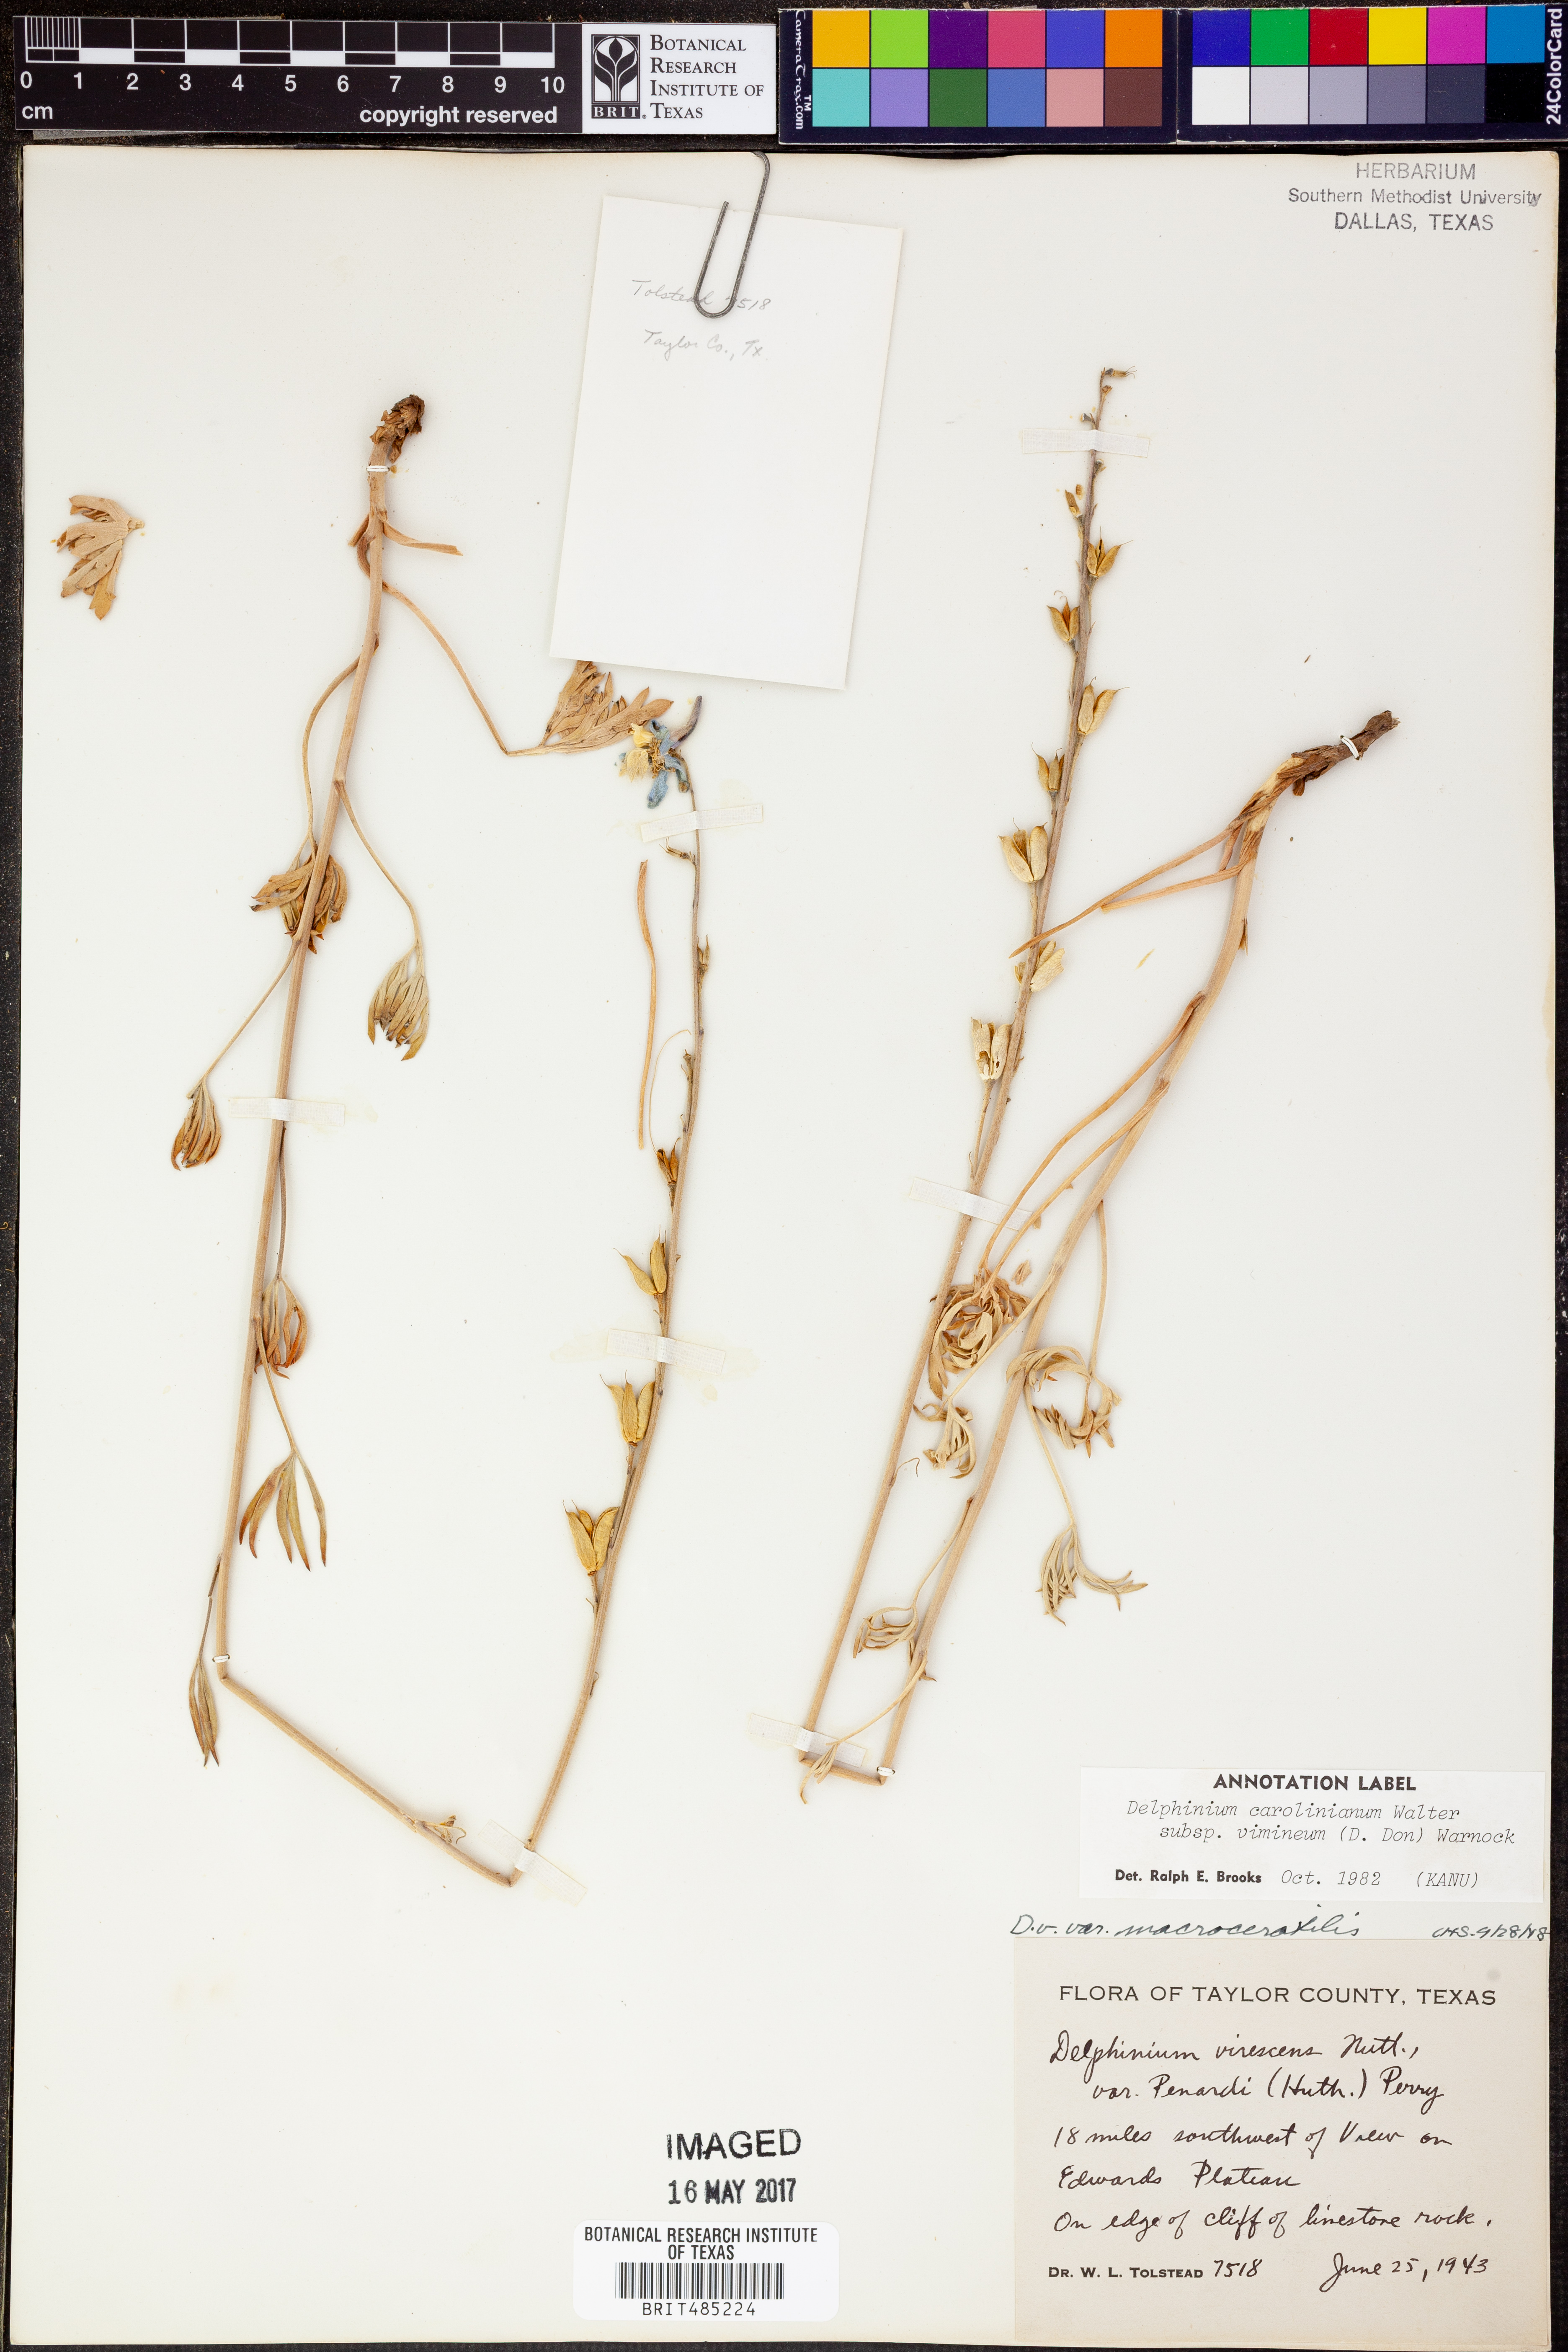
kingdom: Plantae
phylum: Tracheophyta
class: Magnoliopsida
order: Ranunculales
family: Ranunculaceae
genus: Delphinium
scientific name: Delphinium carolinianum
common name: Carolina larkspur
